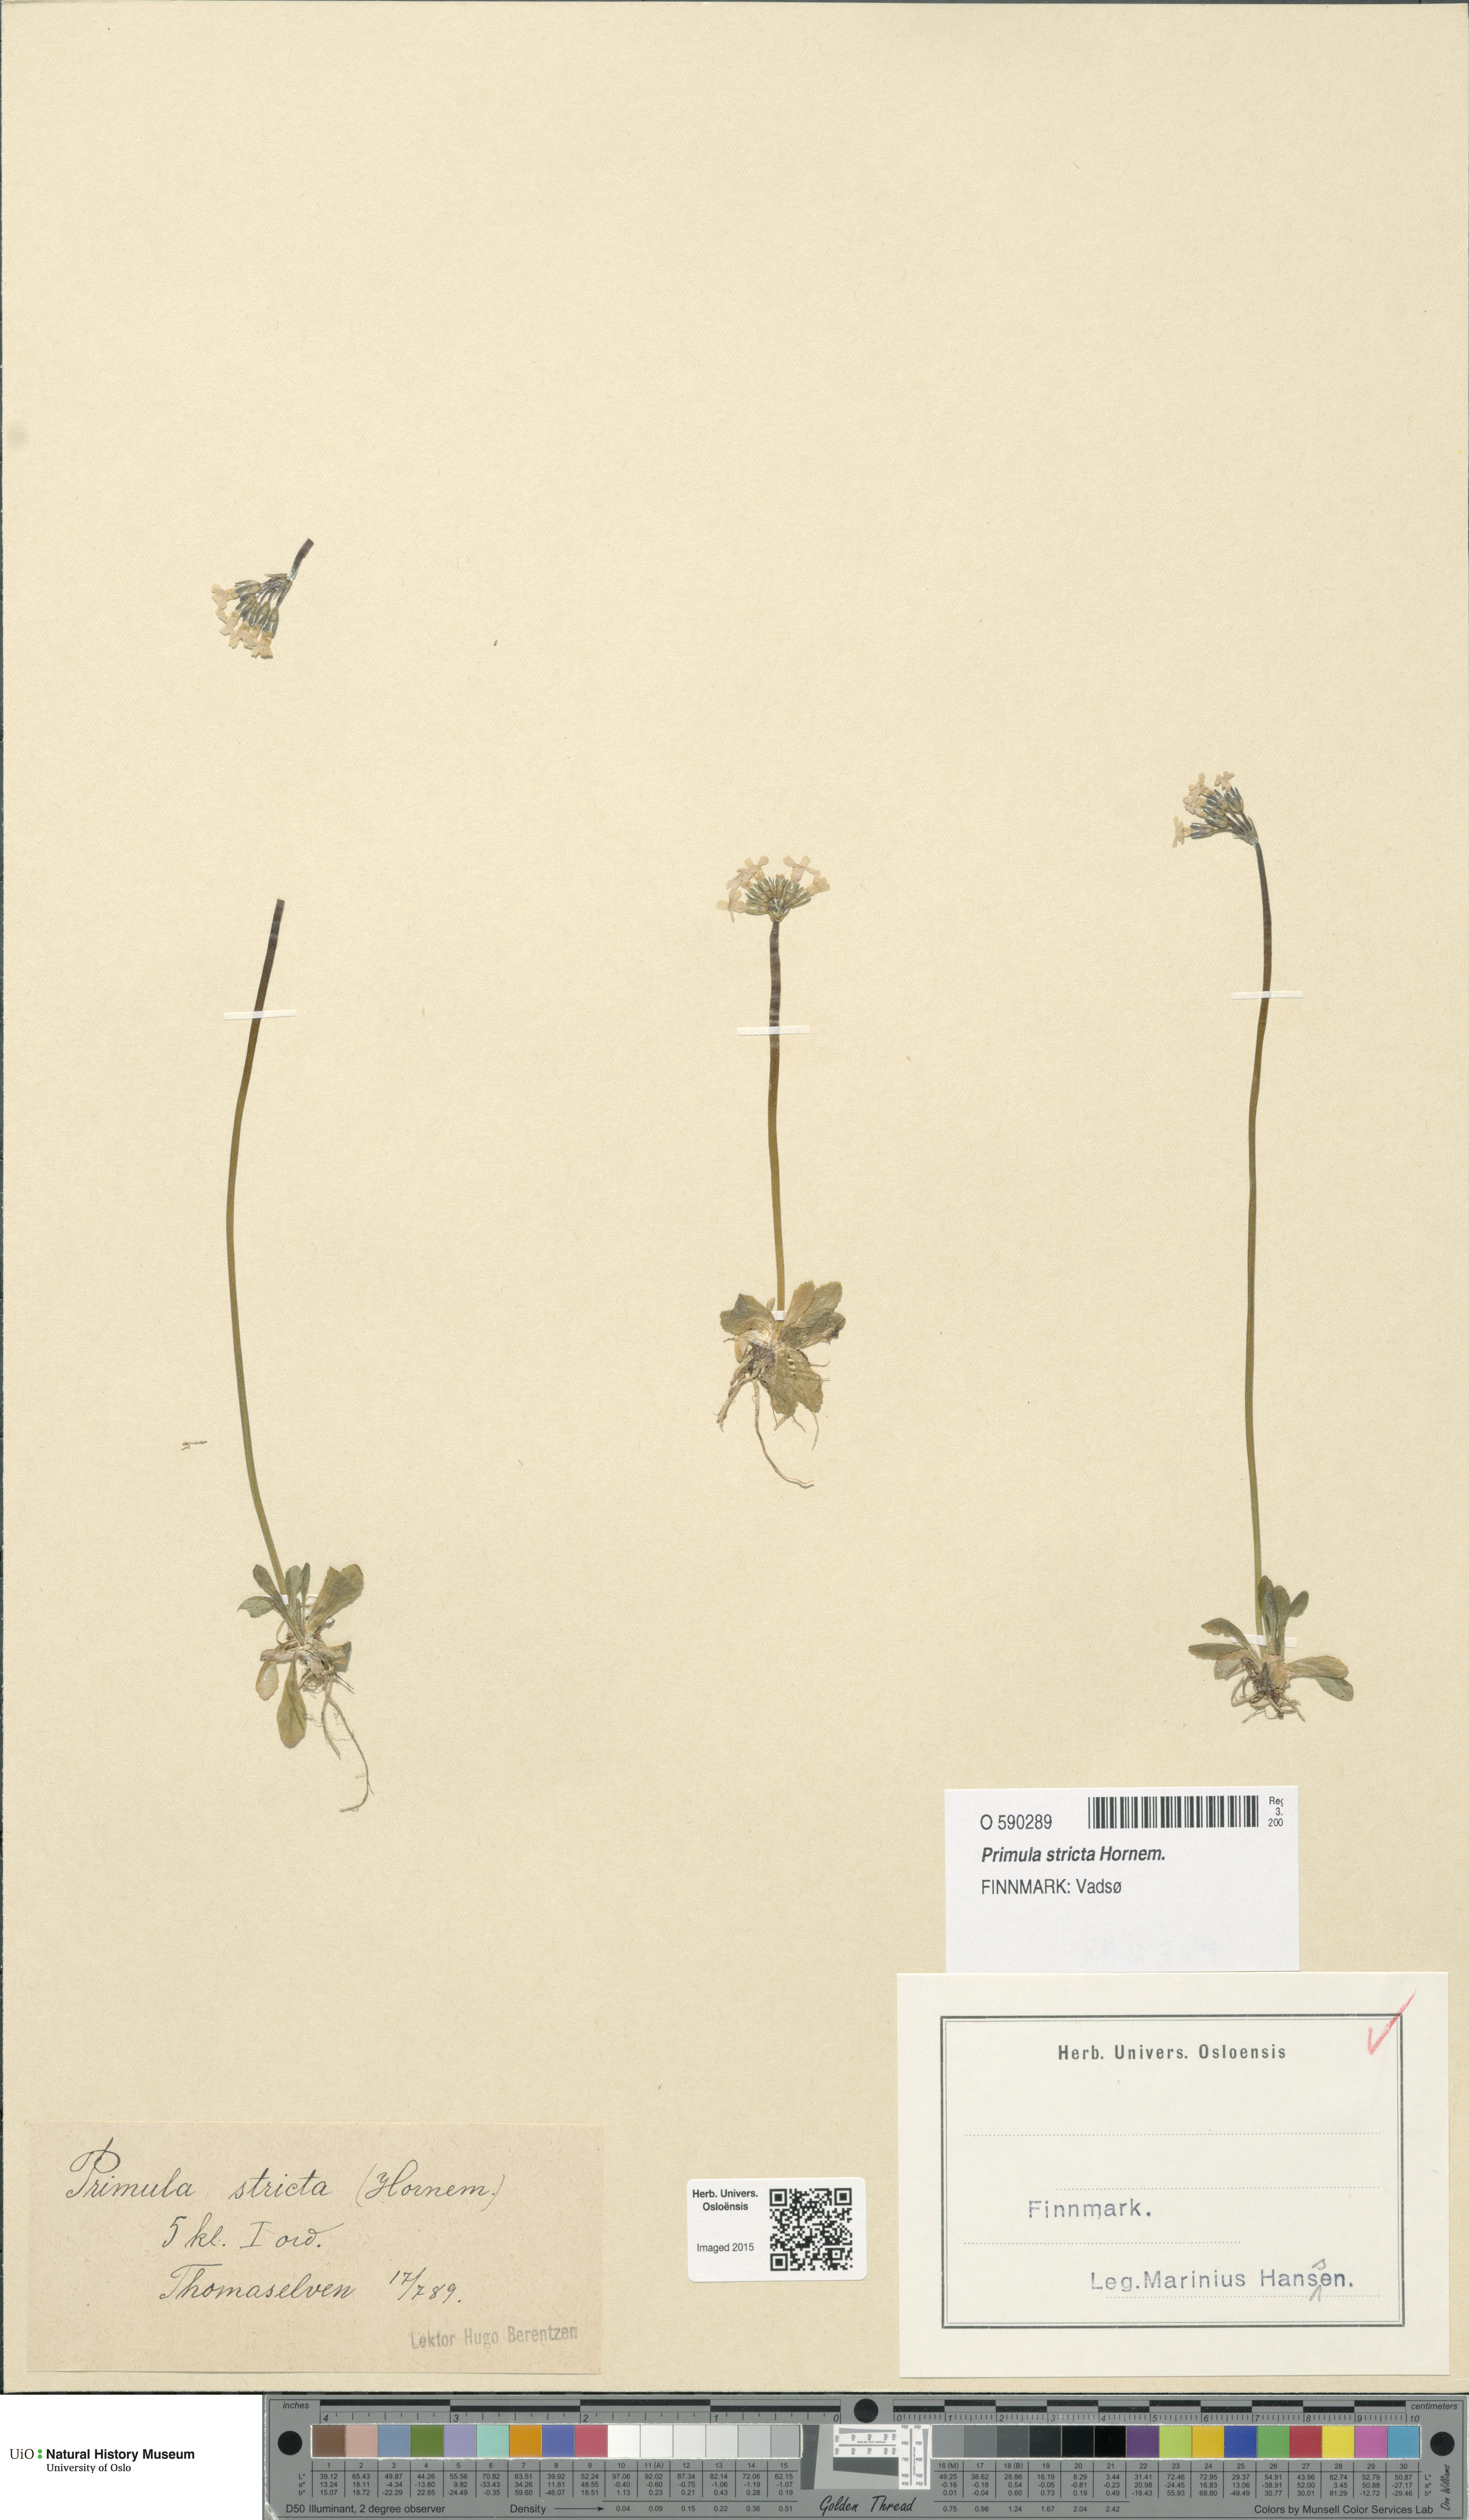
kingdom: Plantae
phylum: Tracheophyta
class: Magnoliopsida
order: Ericales
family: Primulaceae
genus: Primula
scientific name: Primula stricta
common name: Coastal primrose
